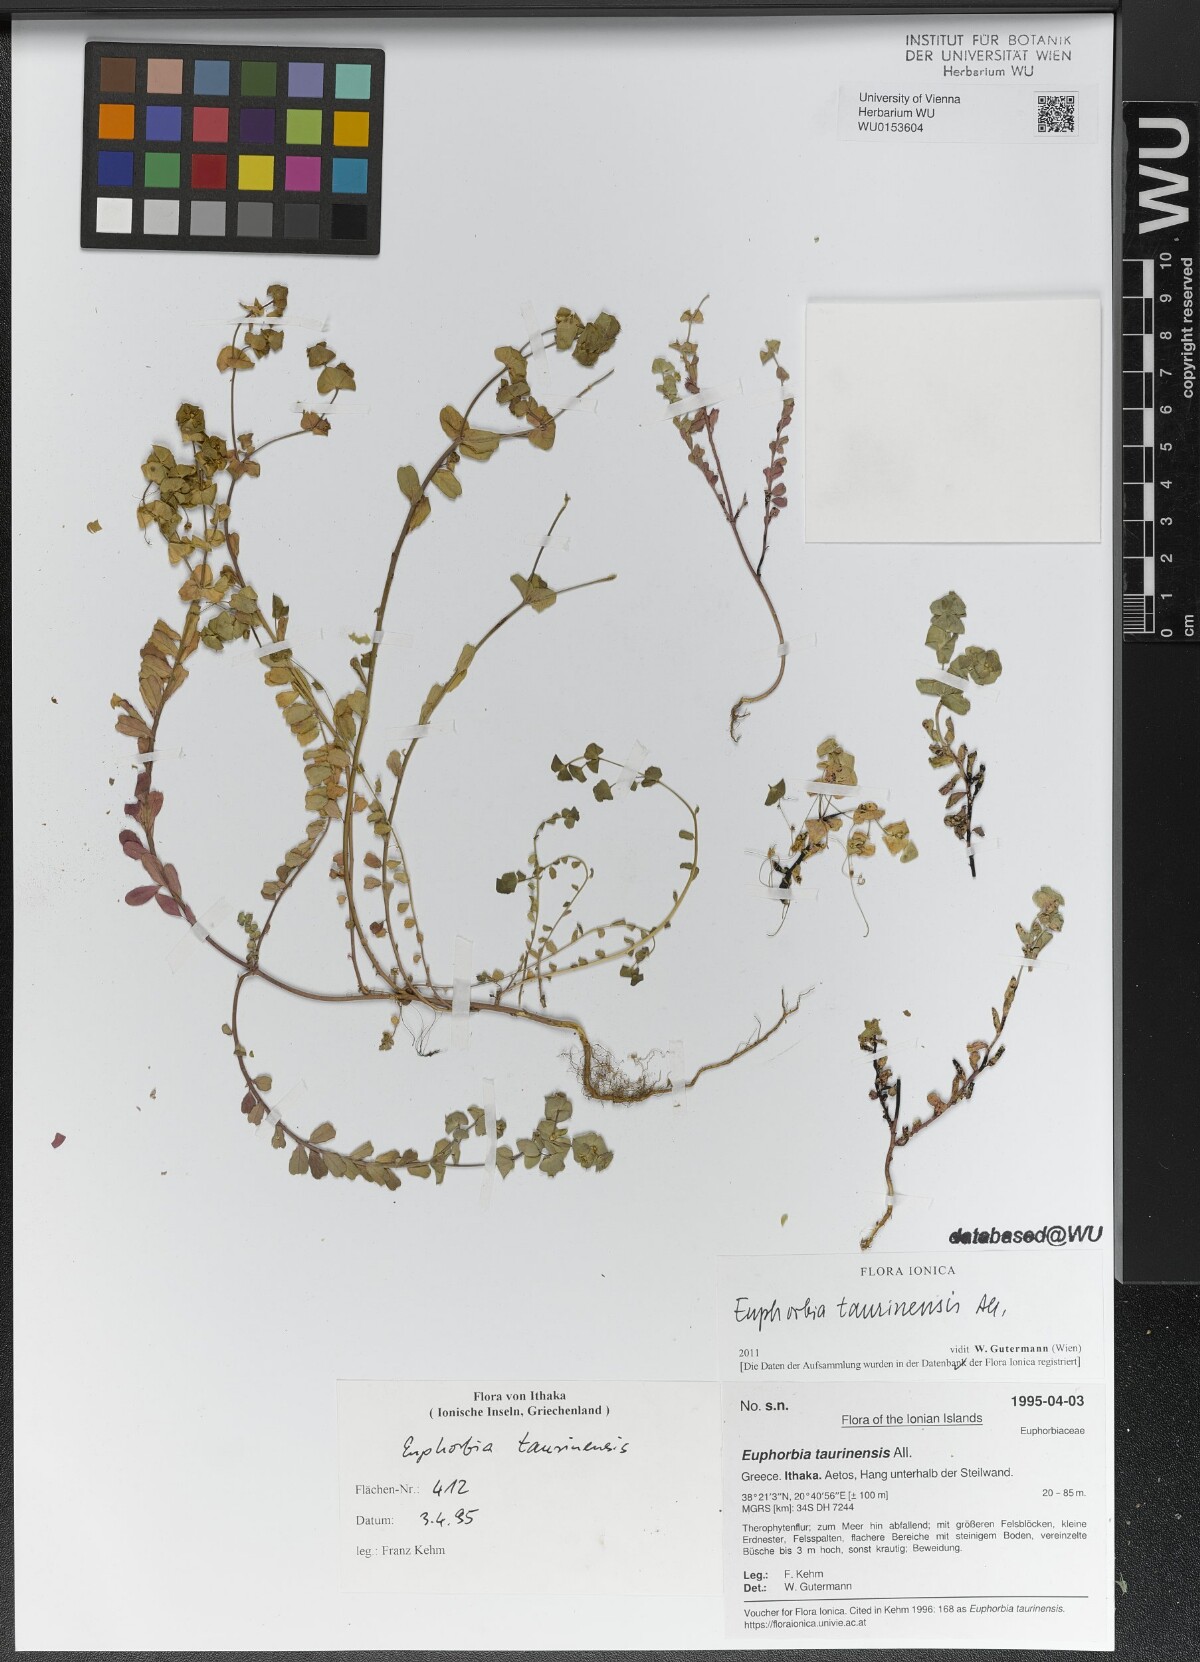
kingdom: Plantae
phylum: Tracheophyta
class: Magnoliopsida
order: Malpighiales
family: Euphorbiaceae
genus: Euphorbia
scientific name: Euphorbia taurinensis
